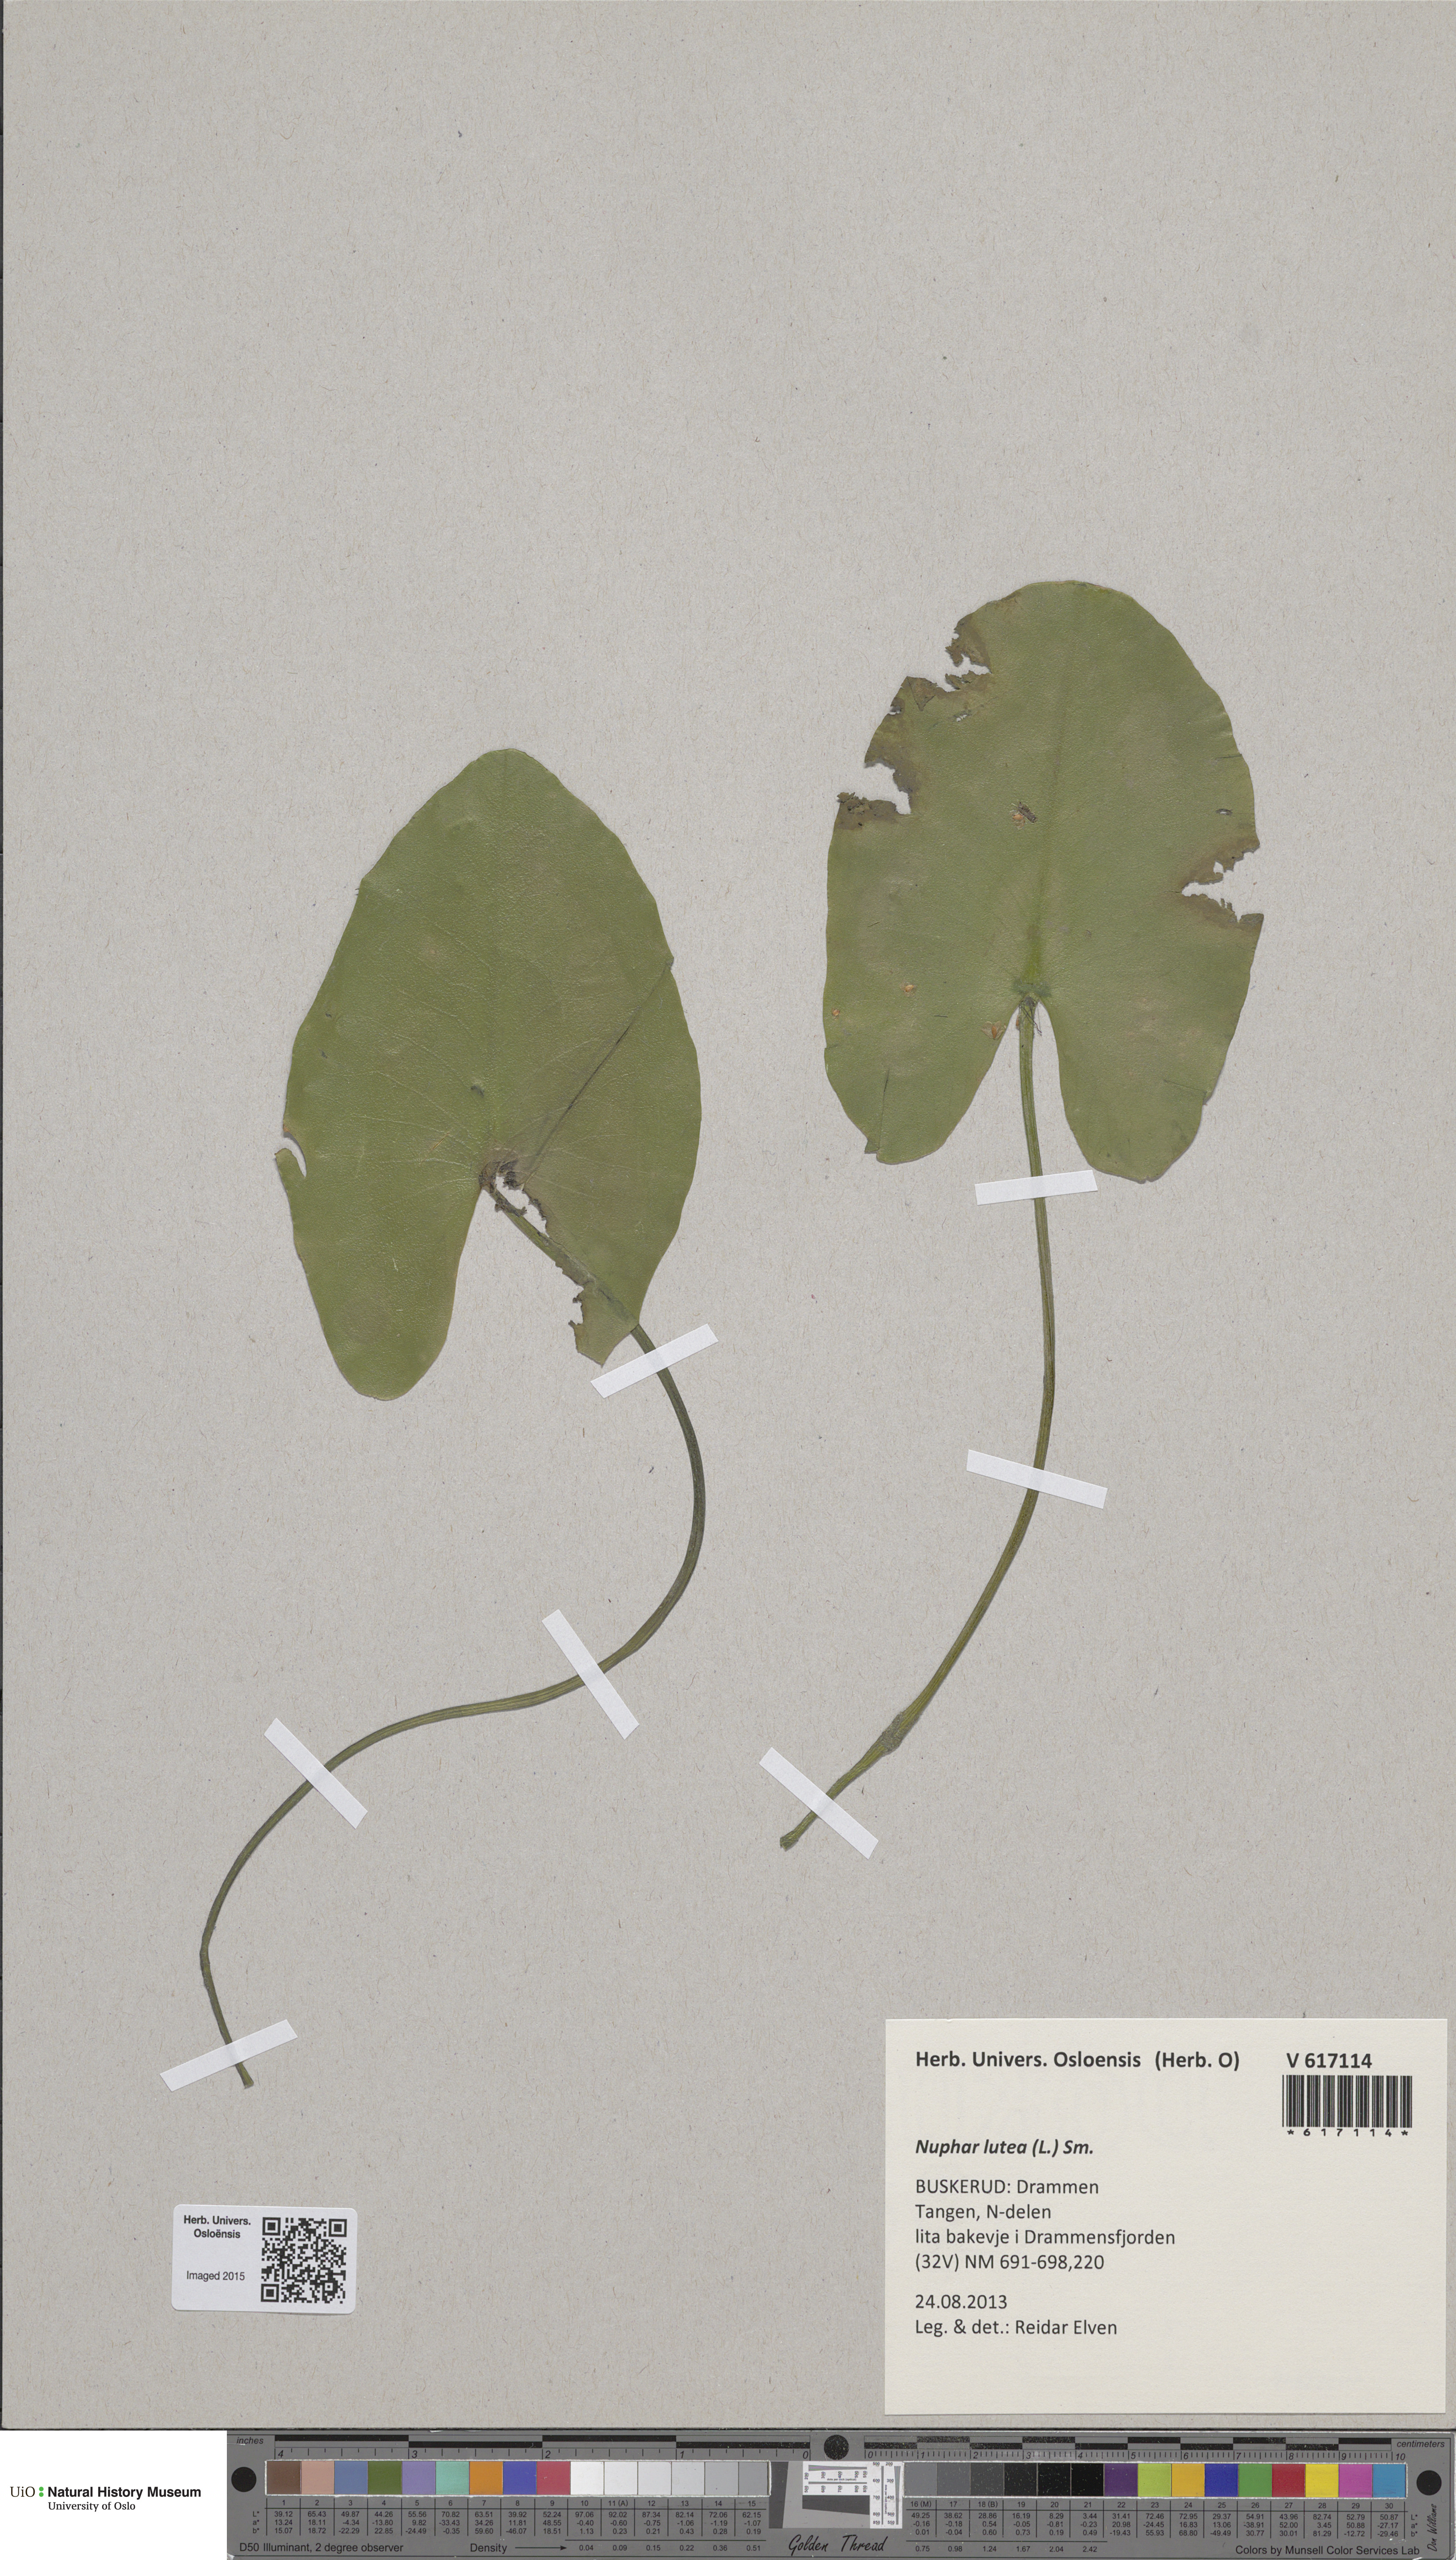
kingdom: Plantae
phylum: Tracheophyta
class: Magnoliopsida
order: Nymphaeales
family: Nymphaeaceae
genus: Nuphar
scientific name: Nuphar lutea
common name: Yellow water-lily
